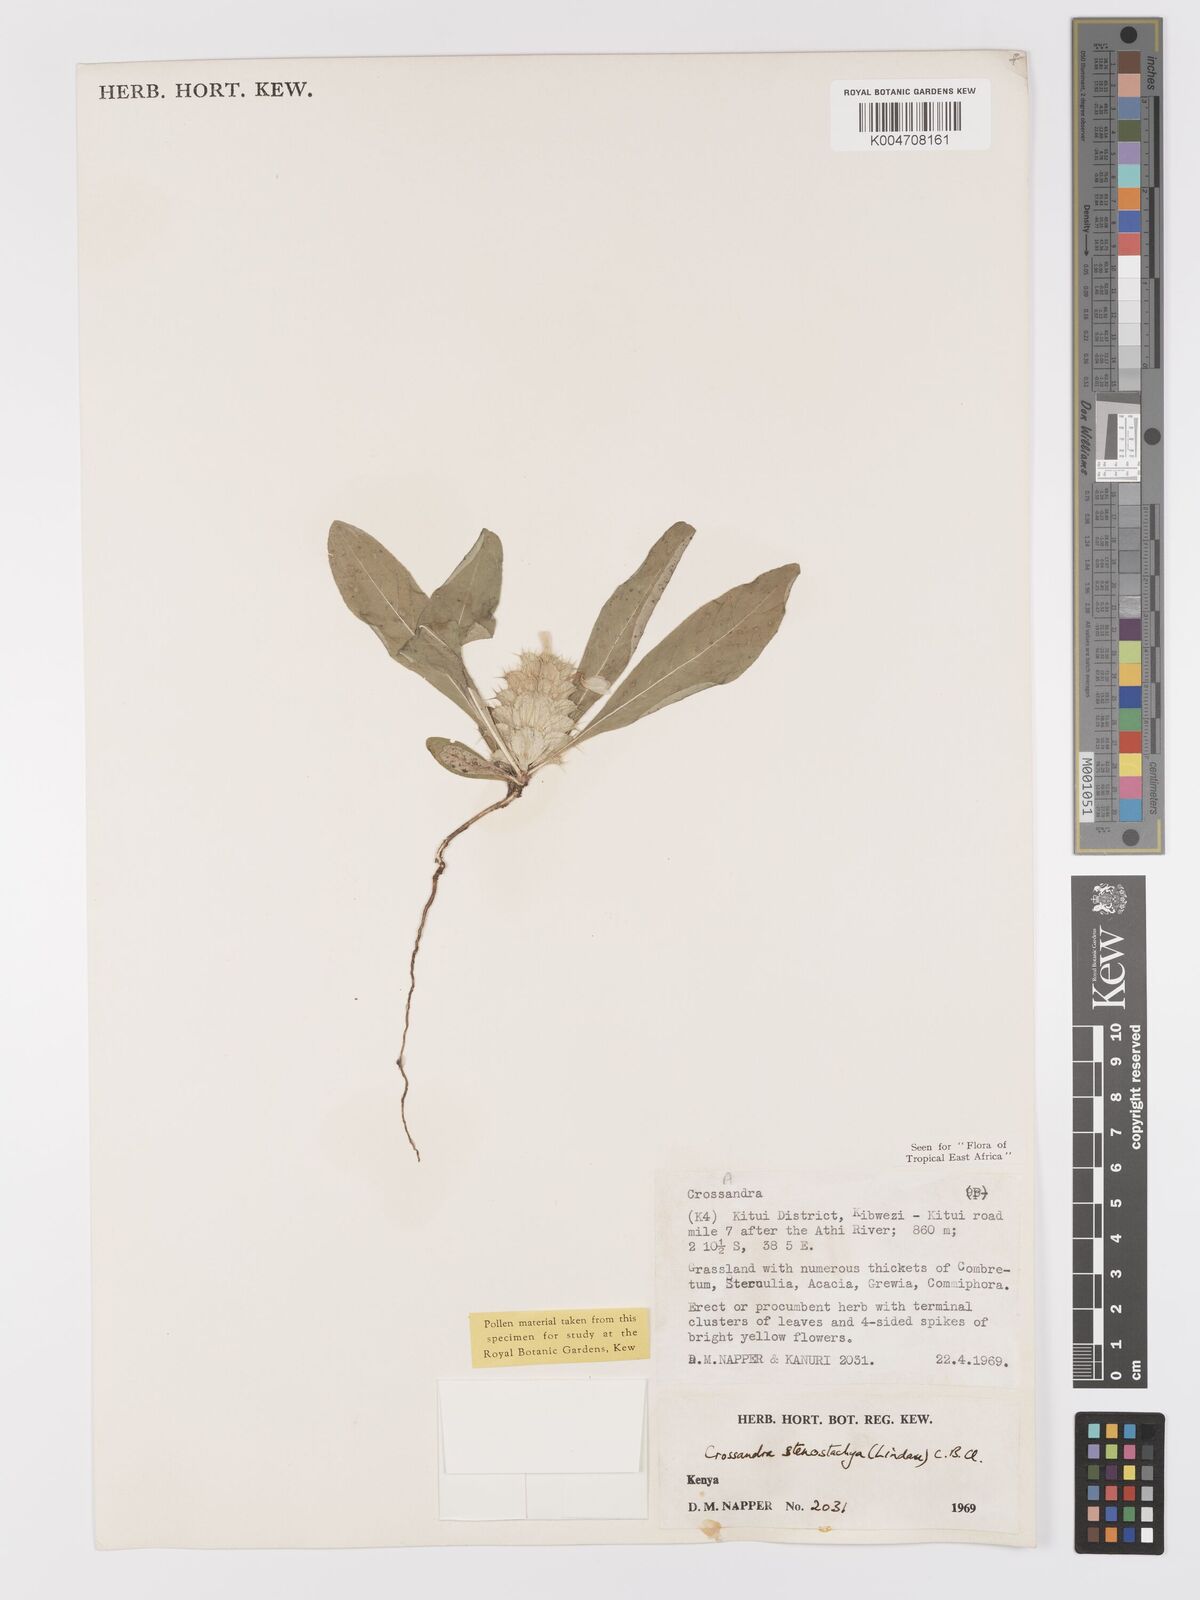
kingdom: Plantae
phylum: Tracheophyta
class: Magnoliopsida
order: Lamiales
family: Acanthaceae
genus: Crossandra
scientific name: Crossandra stenostachya
